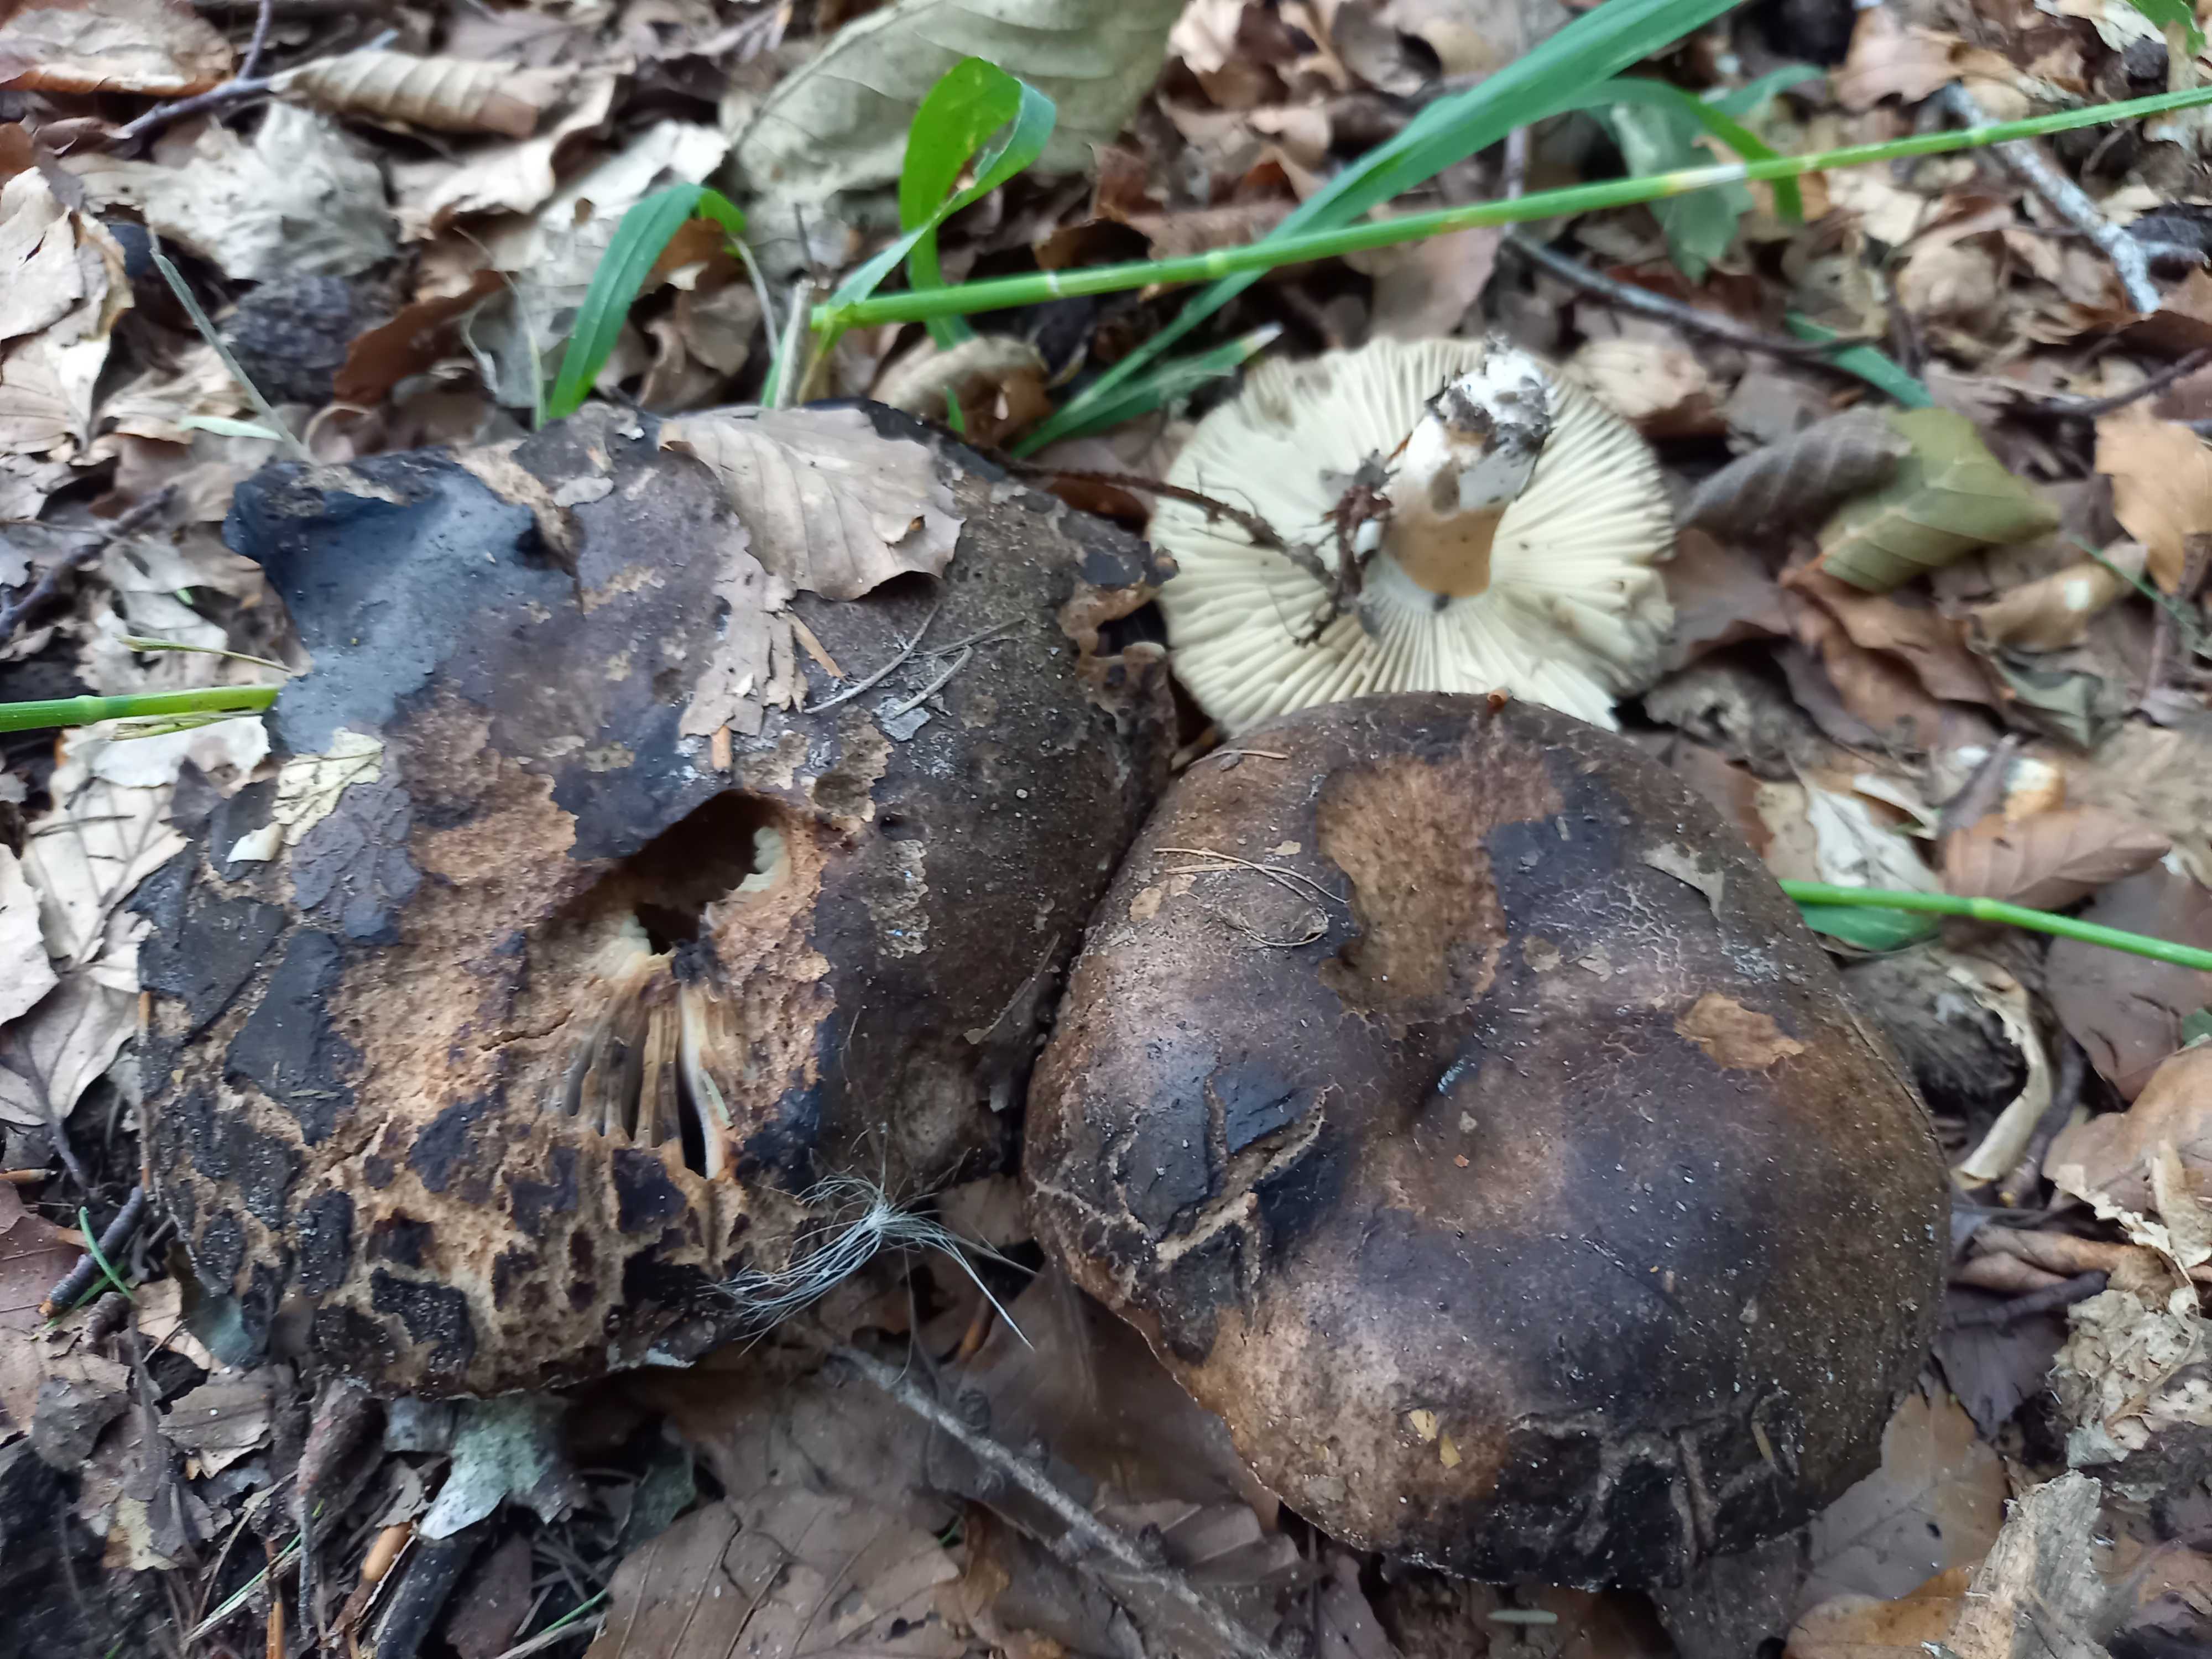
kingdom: Fungi
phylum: Basidiomycota
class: Agaricomycetes
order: Russulales
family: Russulaceae
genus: Russula
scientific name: Russula adusta
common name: sværtende skørhat
